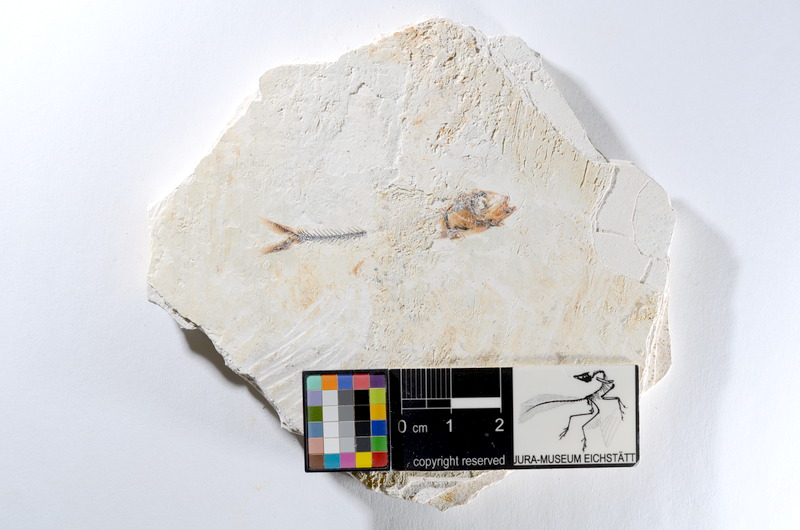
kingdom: Animalia
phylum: Chordata
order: Salmoniformes
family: Orthogonikleithridae
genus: Orthogonikleithrus
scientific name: Orthogonikleithrus hoelli
